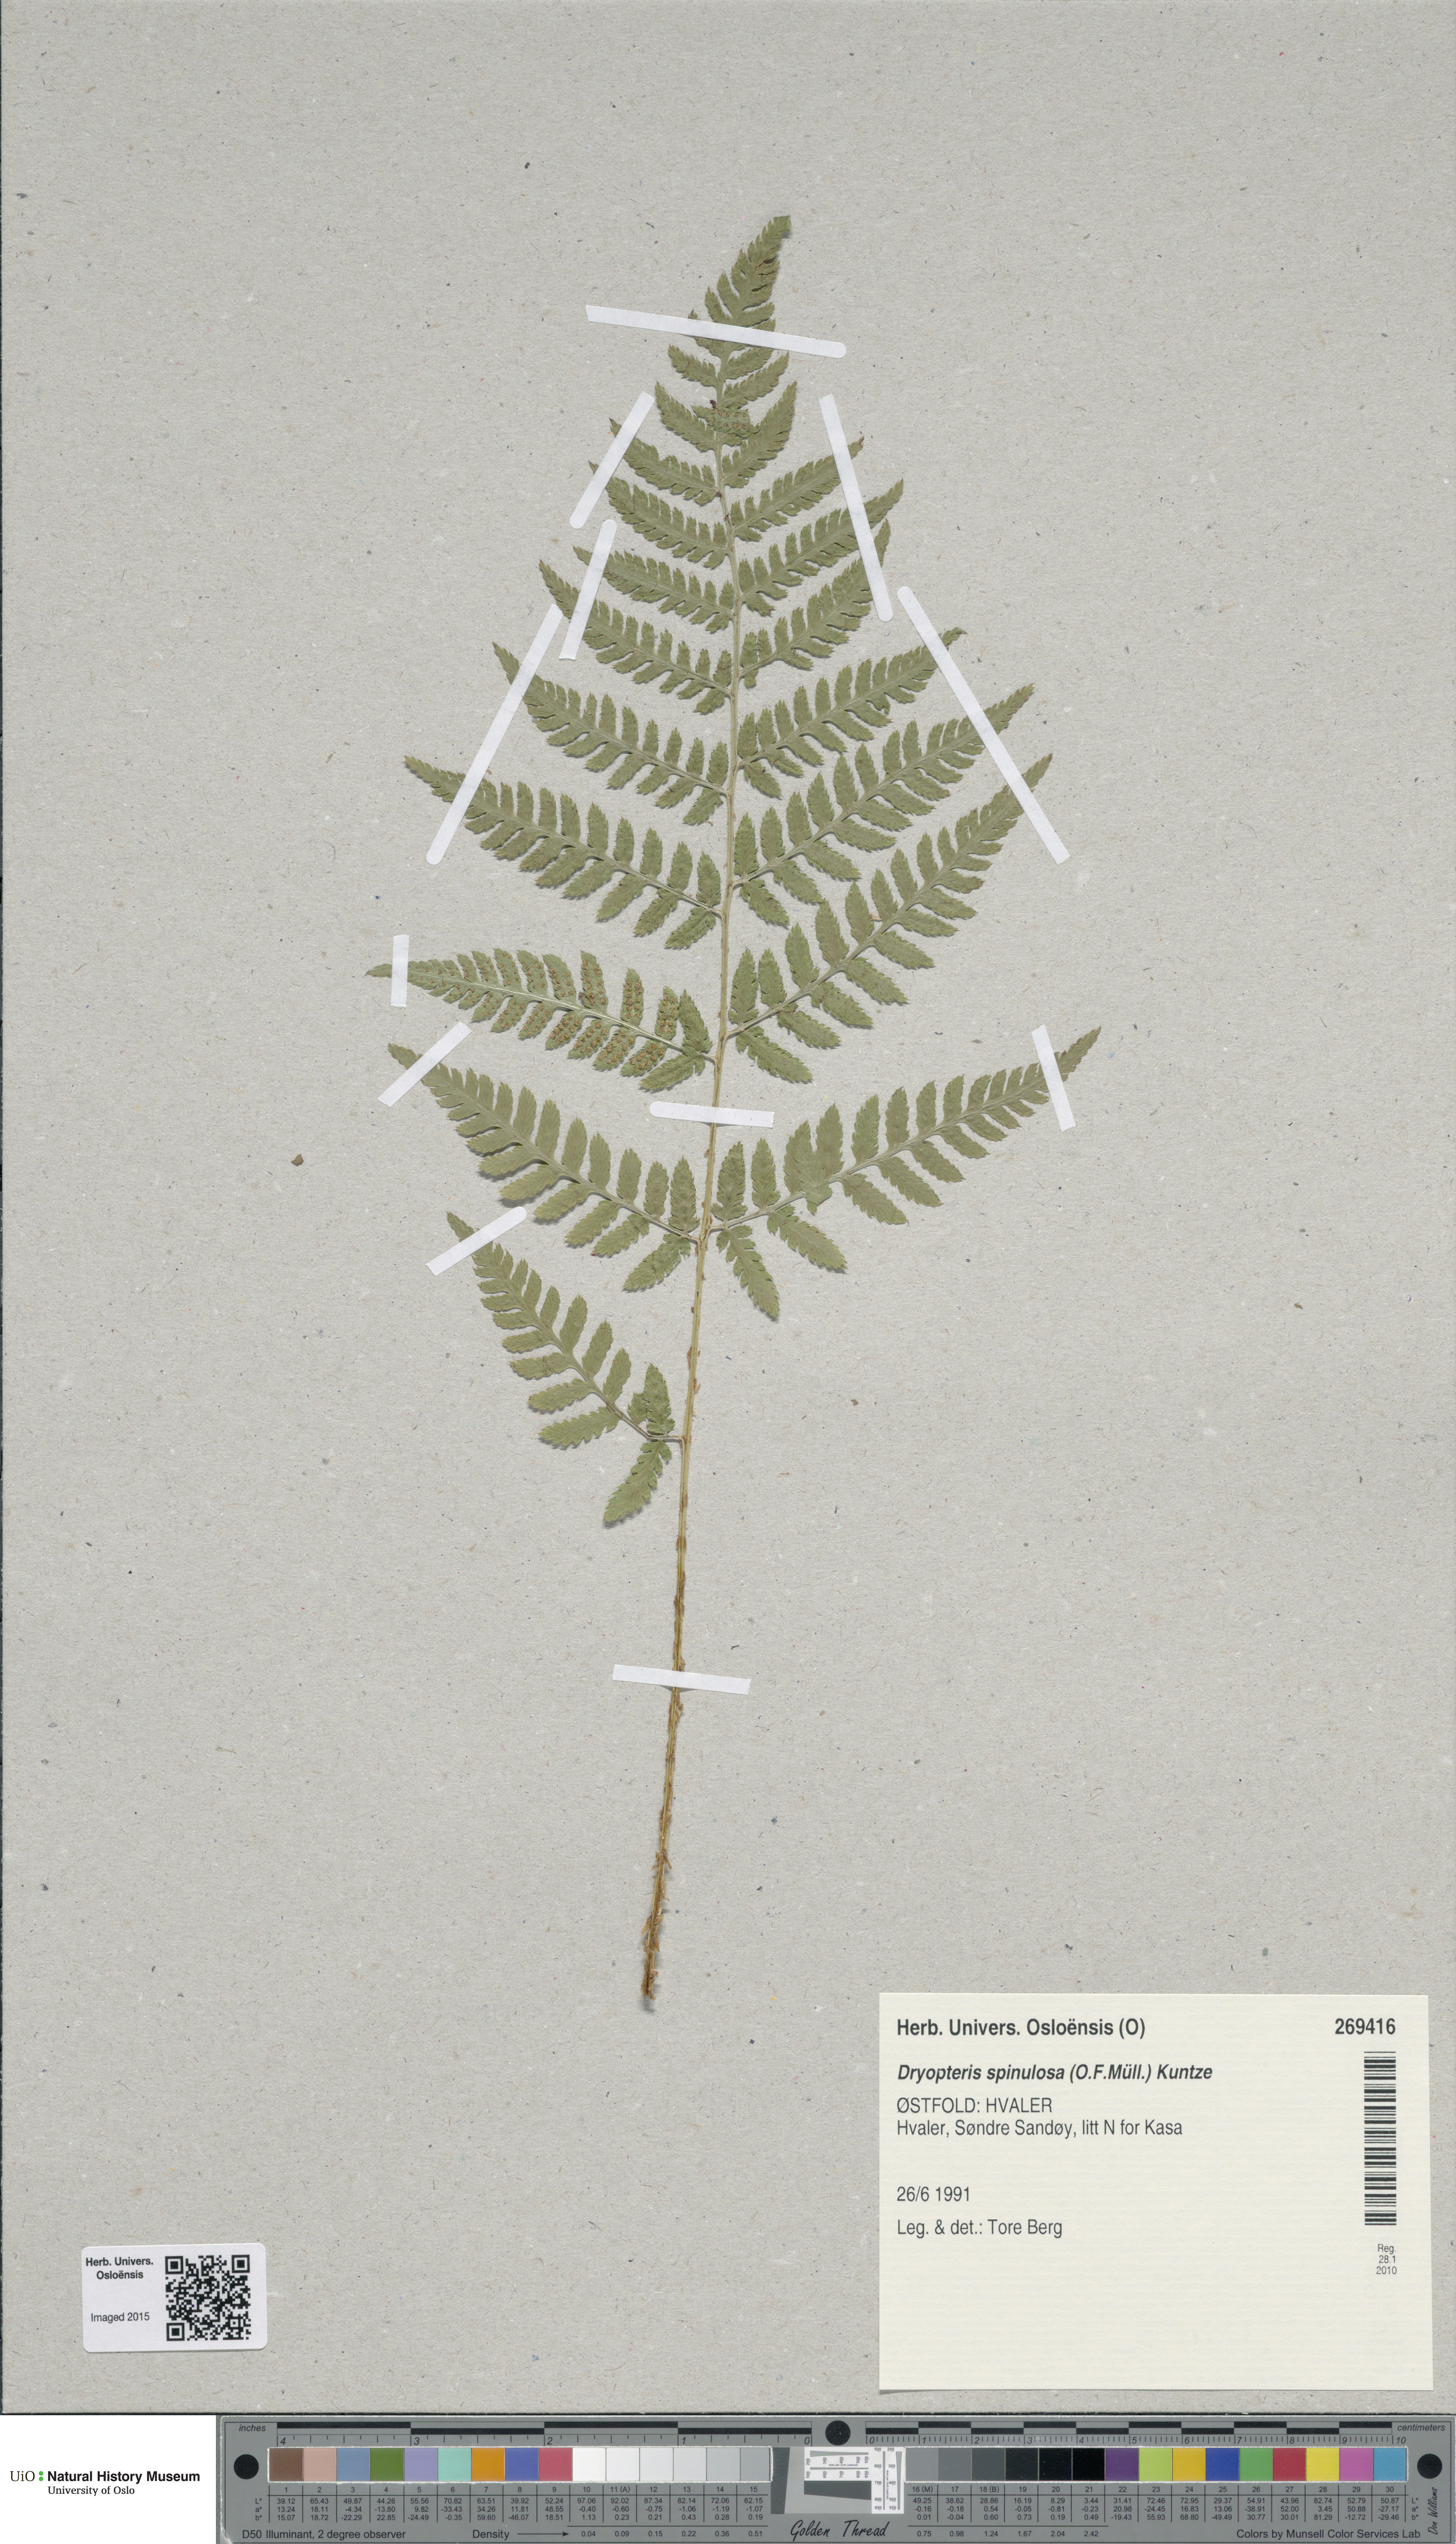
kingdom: Plantae
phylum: Tracheophyta
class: Polypodiopsida
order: Polypodiales
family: Dryopteridaceae
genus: Dryopteris
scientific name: Dryopteris carthusiana
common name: Narrow buckler-fern
